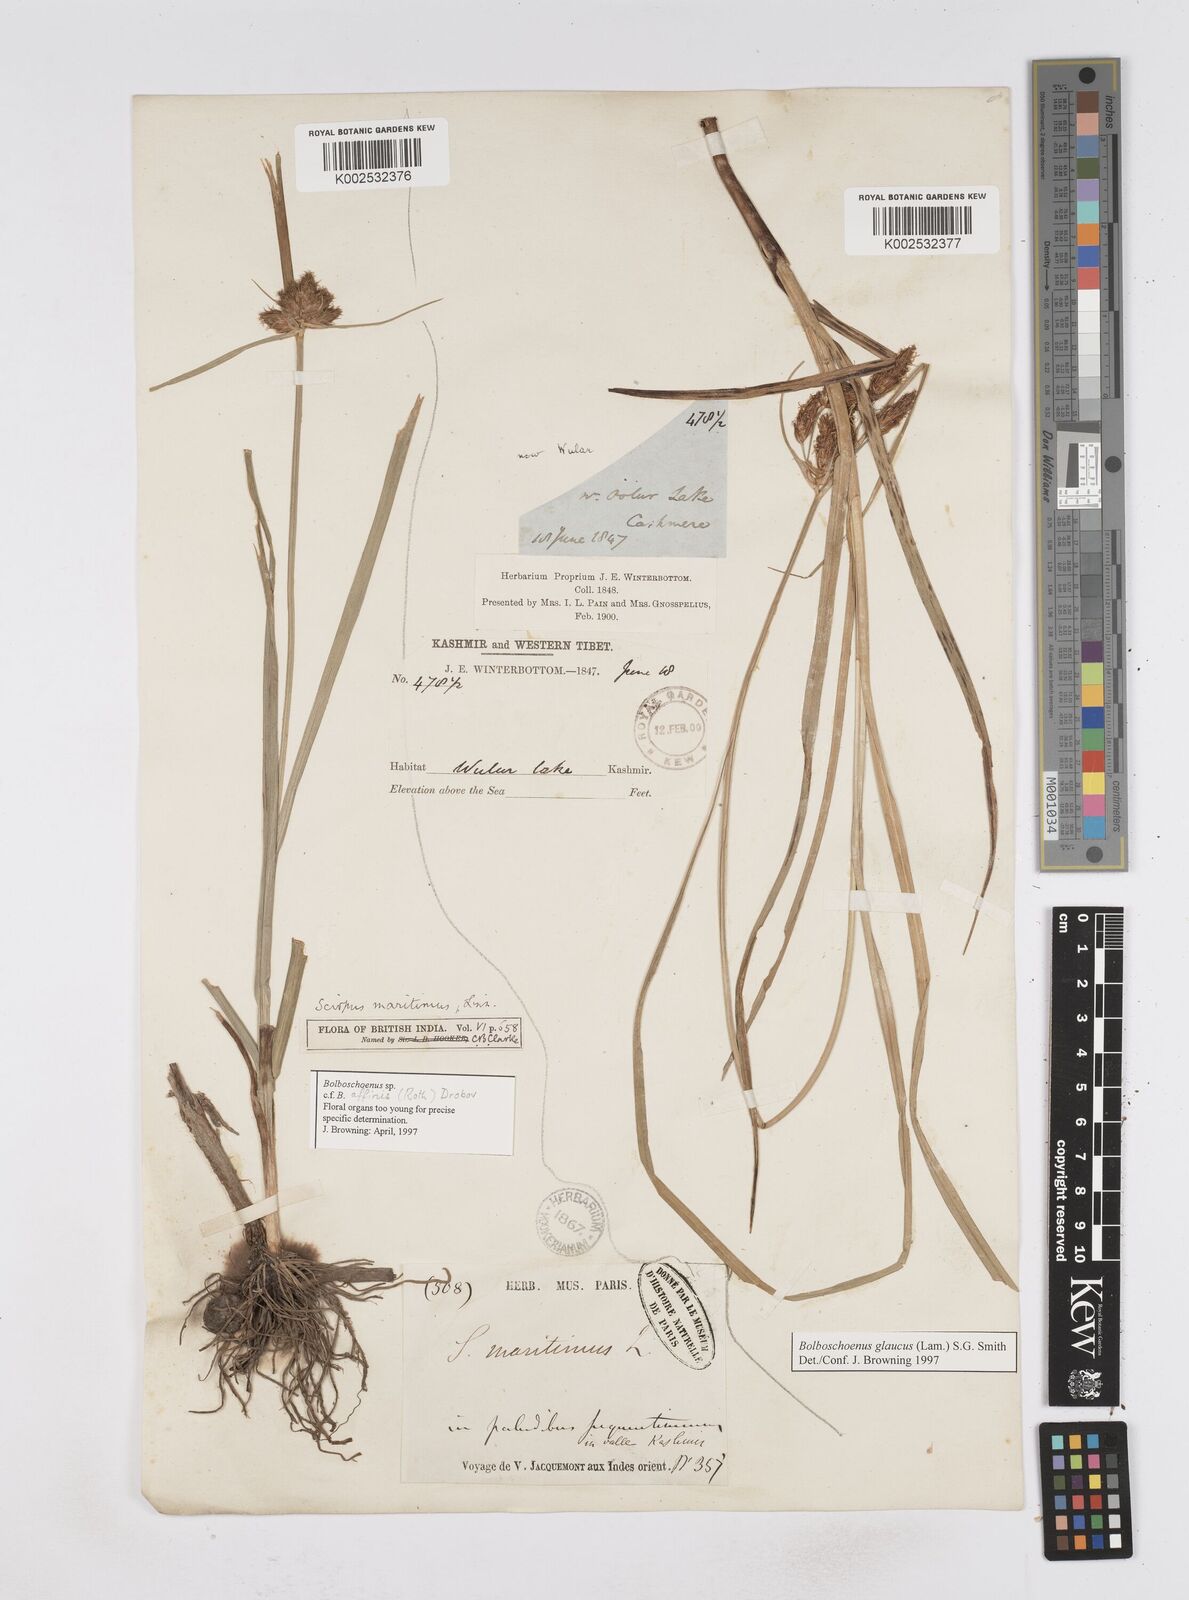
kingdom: Plantae
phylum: Tracheophyta
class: Liliopsida
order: Poales
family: Cyperaceae
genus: Bolboschoenus
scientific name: Bolboschoenus maritimus
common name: Sea club-rush
